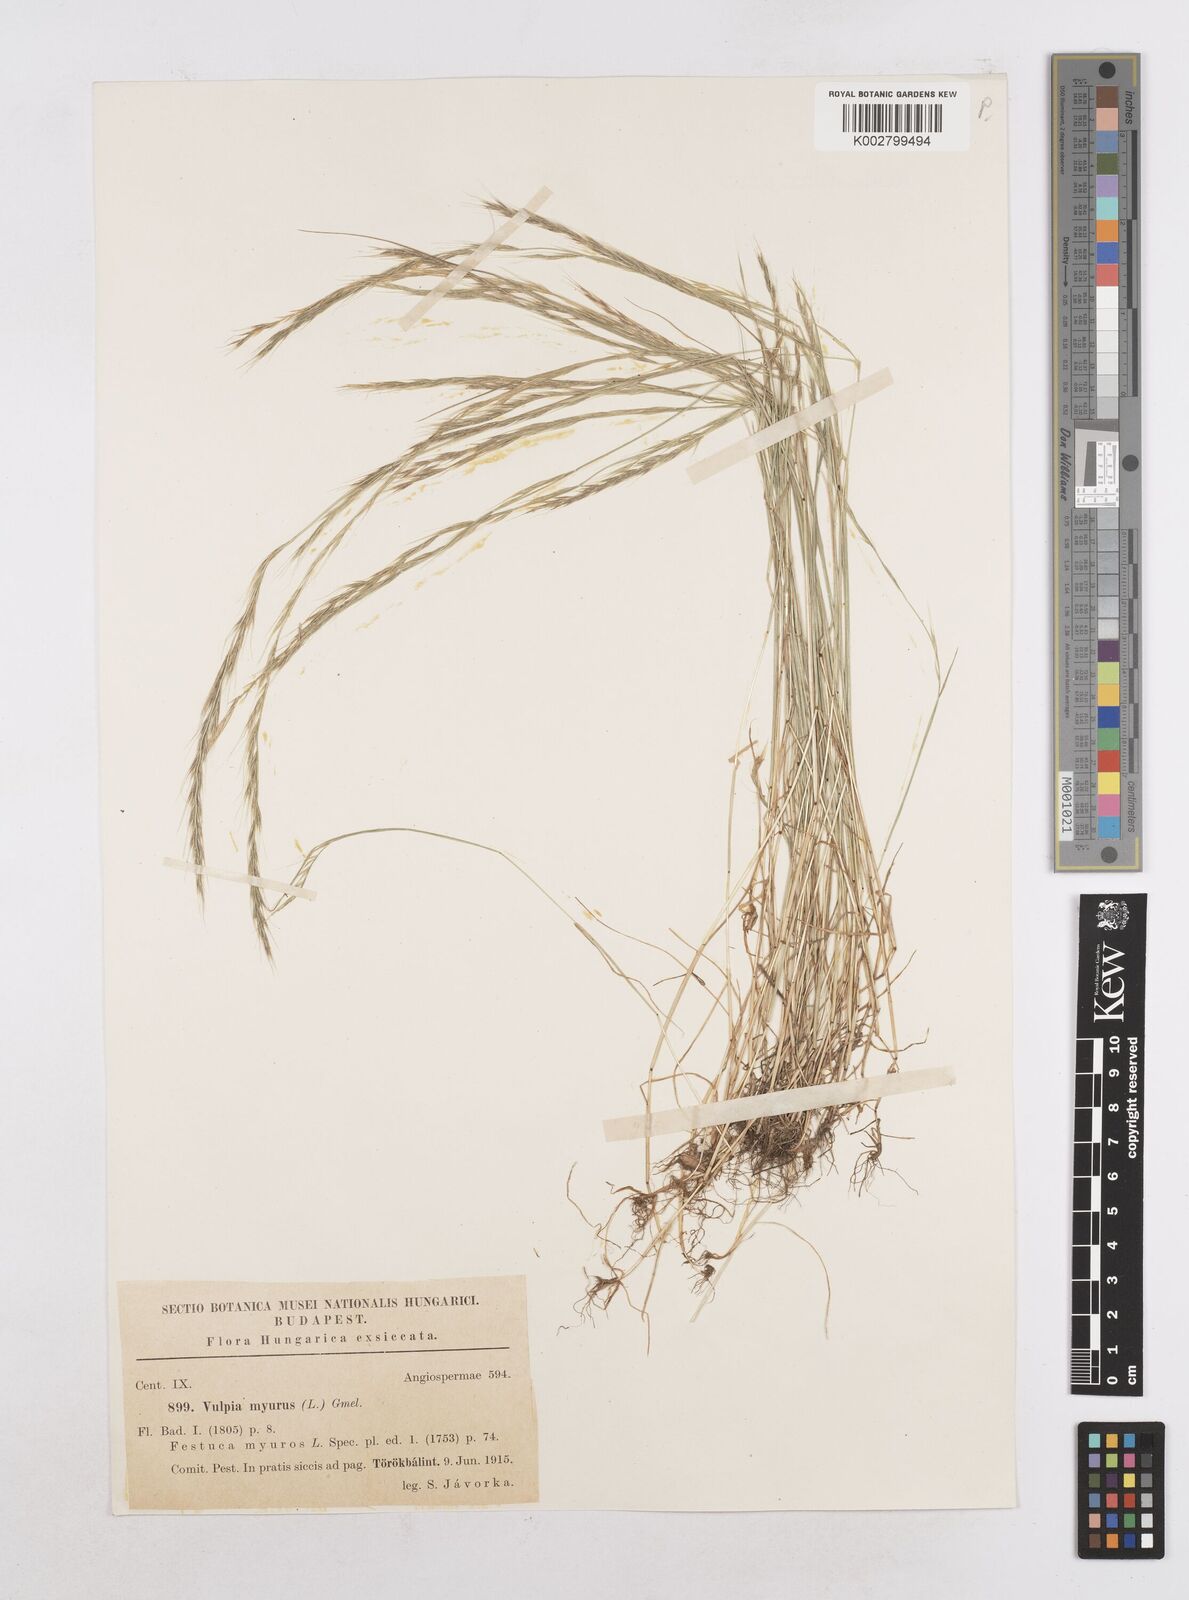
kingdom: Plantae
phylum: Tracheophyta
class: Liliopsida
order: Poales
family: Poaceae
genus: Festuca
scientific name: Festuca myuros
